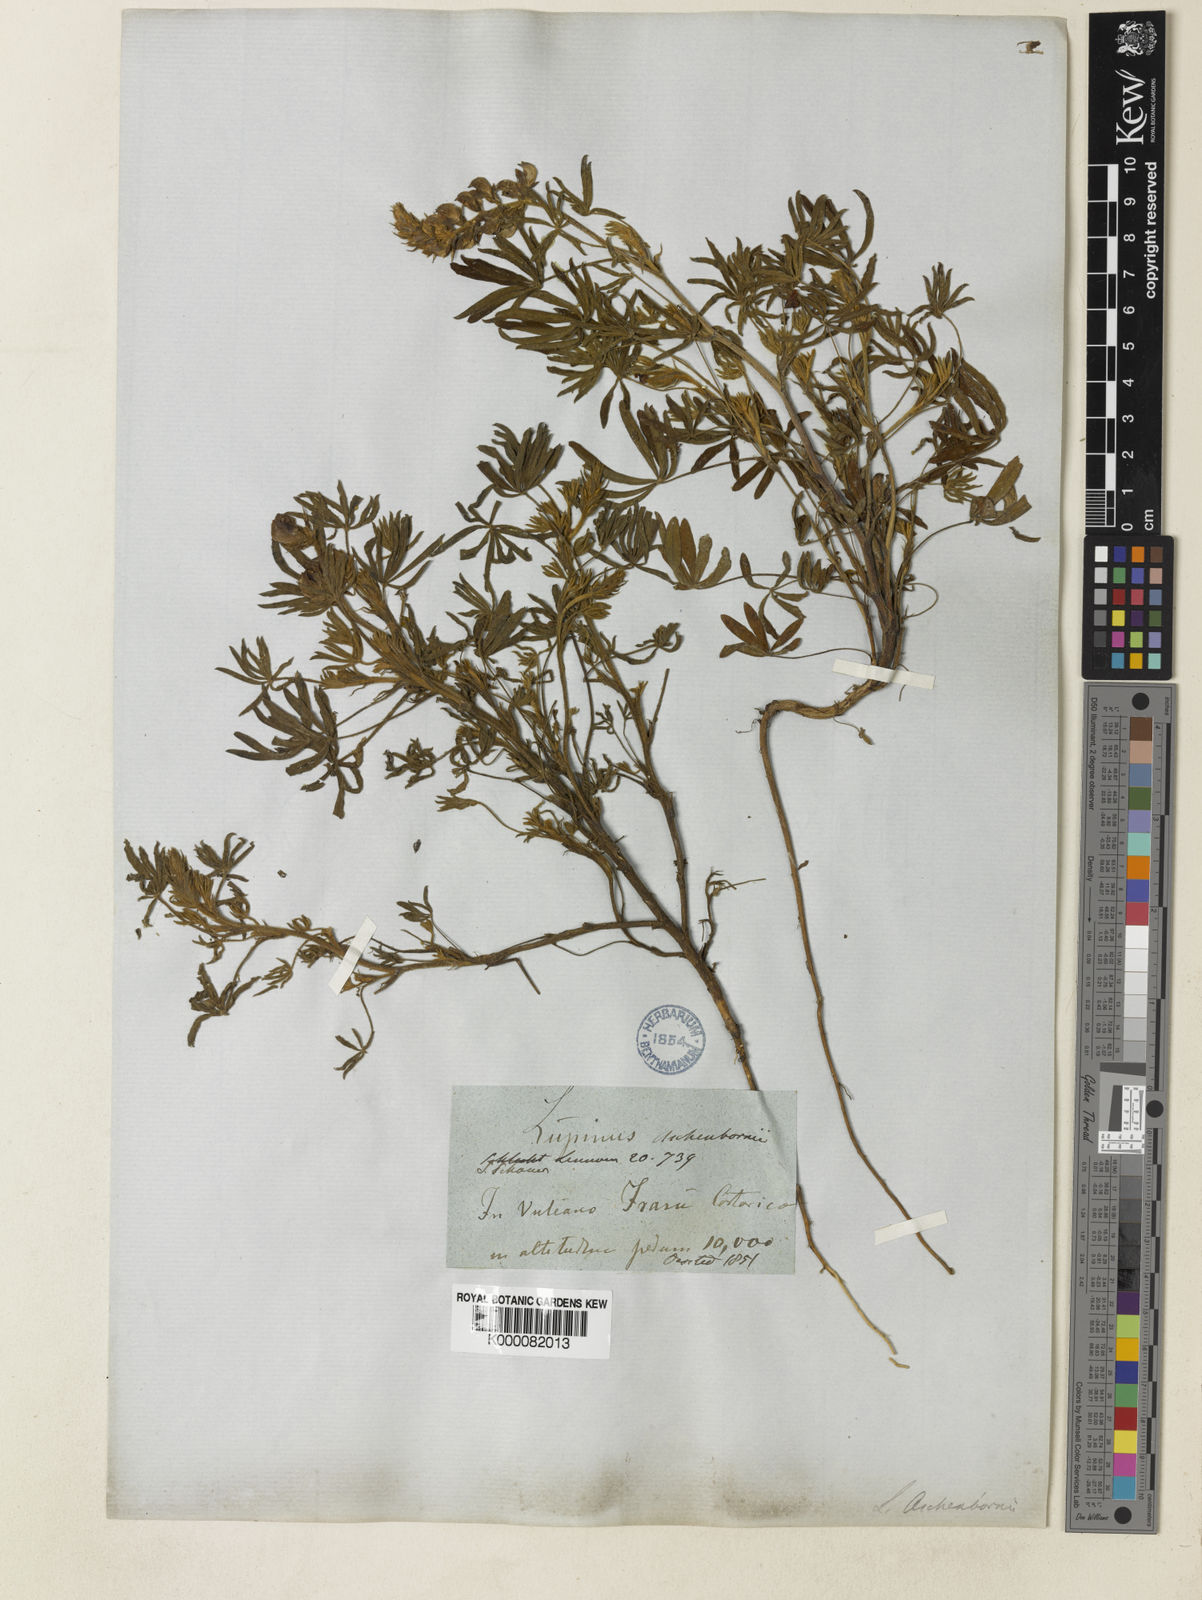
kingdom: Plantae
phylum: Tracheophyta
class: Magnoliopsida
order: Fabales
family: Fabaceae
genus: Lupinus
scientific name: Lupinus aschenbornii
